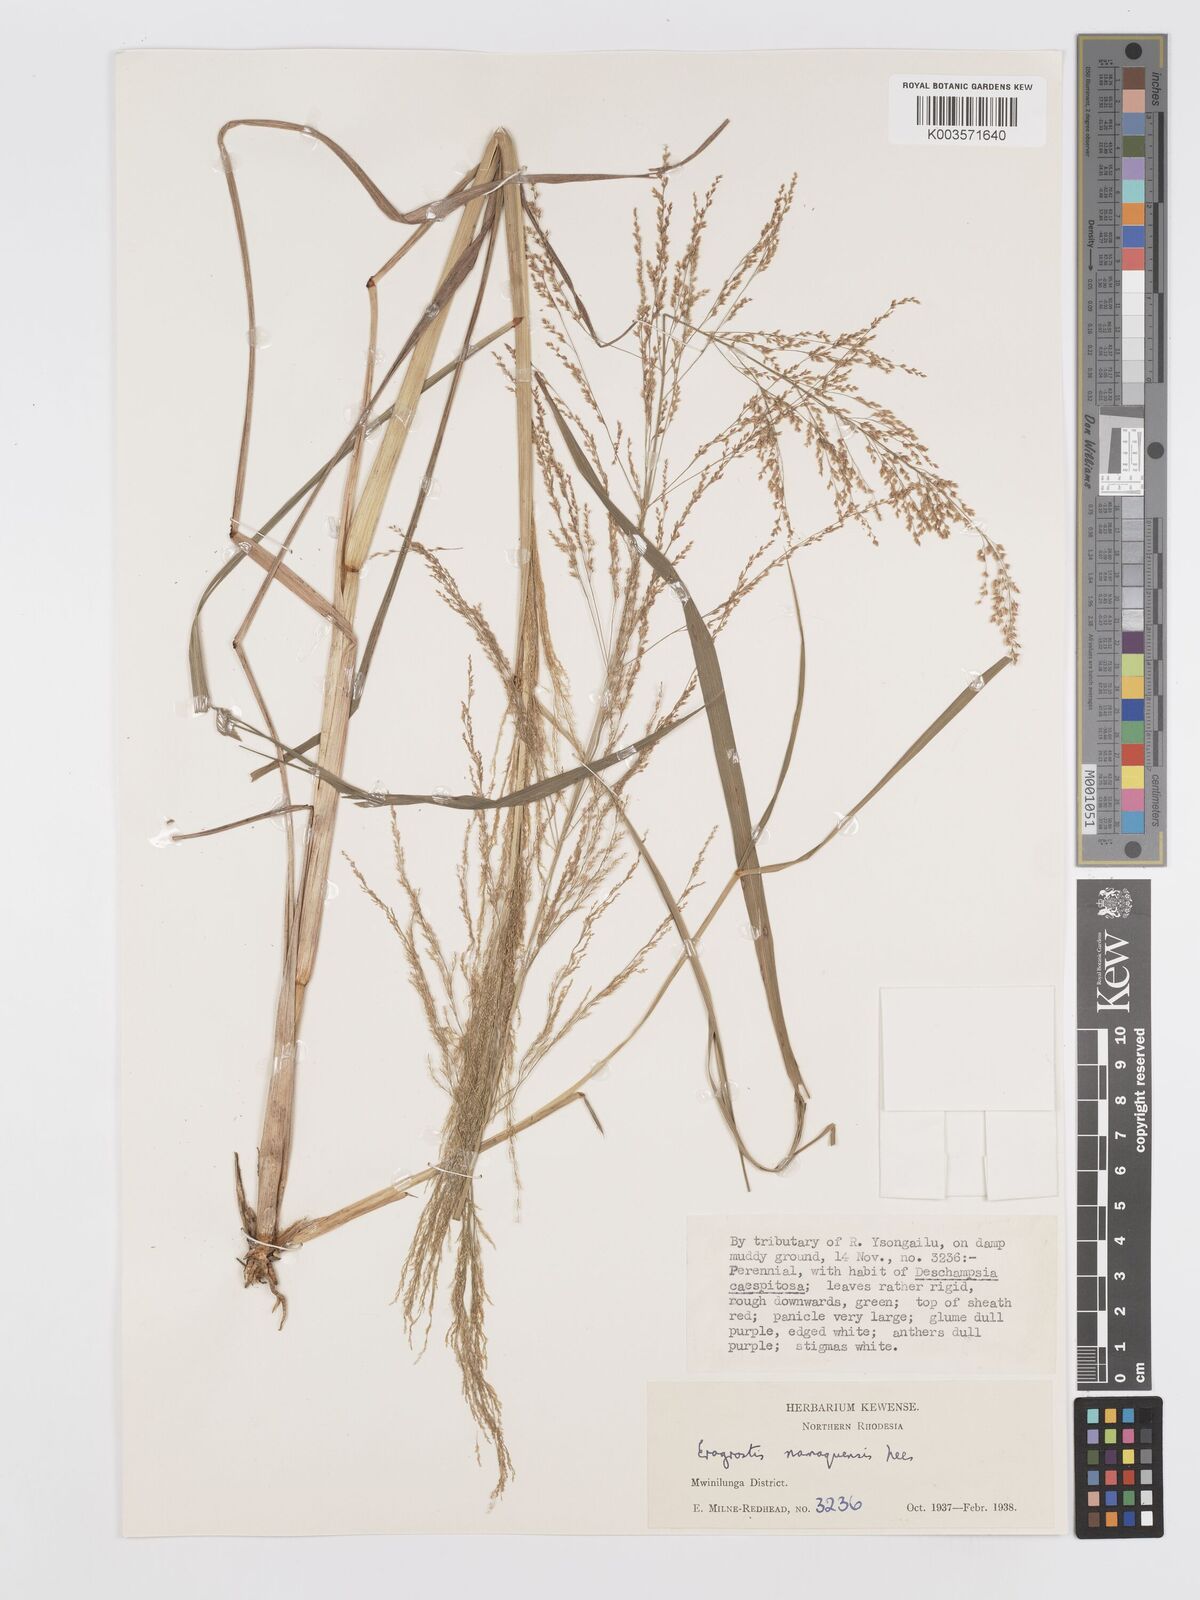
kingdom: Plantae
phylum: Tracheophyta
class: Liliopsida
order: Poales
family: Poaceae
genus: Eragrostis
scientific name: Eragrostis japonica
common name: Pond lovegrass
